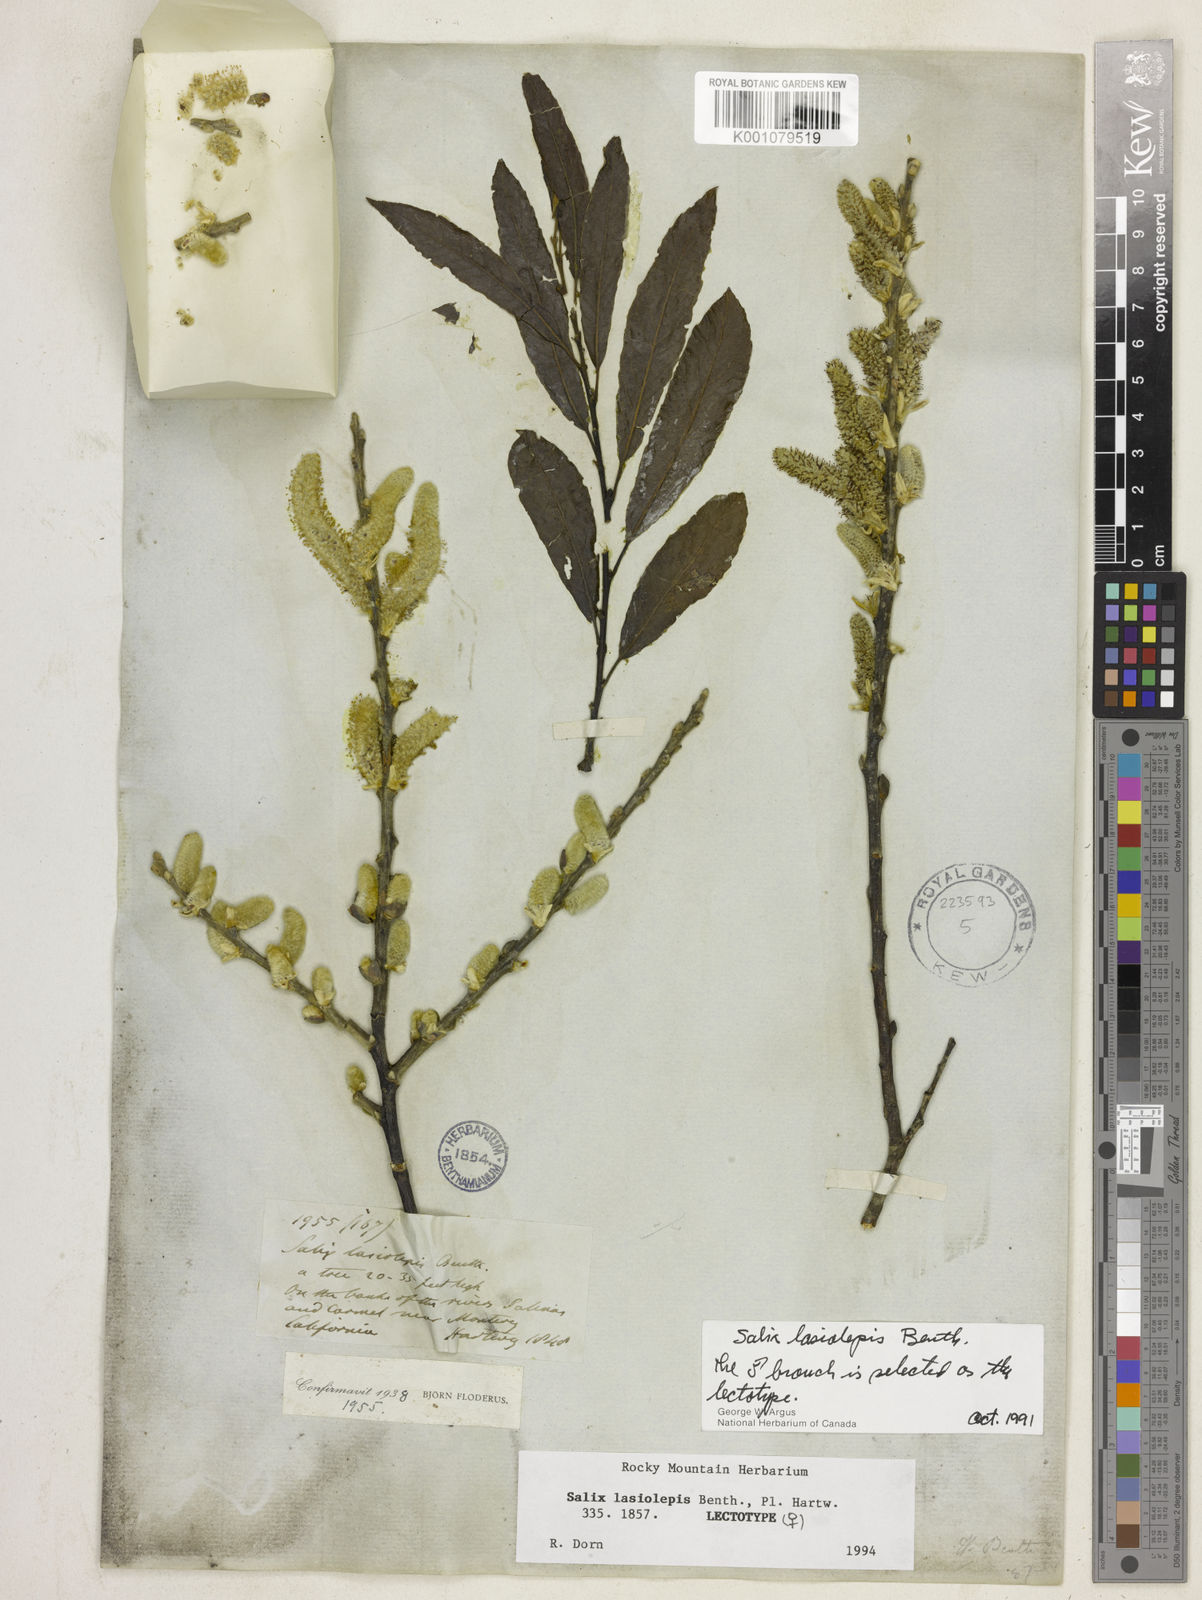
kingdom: Plantae
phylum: Tracheophyta
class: Magnoliopsida
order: Malpighiales
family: Salicaceae
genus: Salix
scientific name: Salix lasiolepis
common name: Arroyo willow
